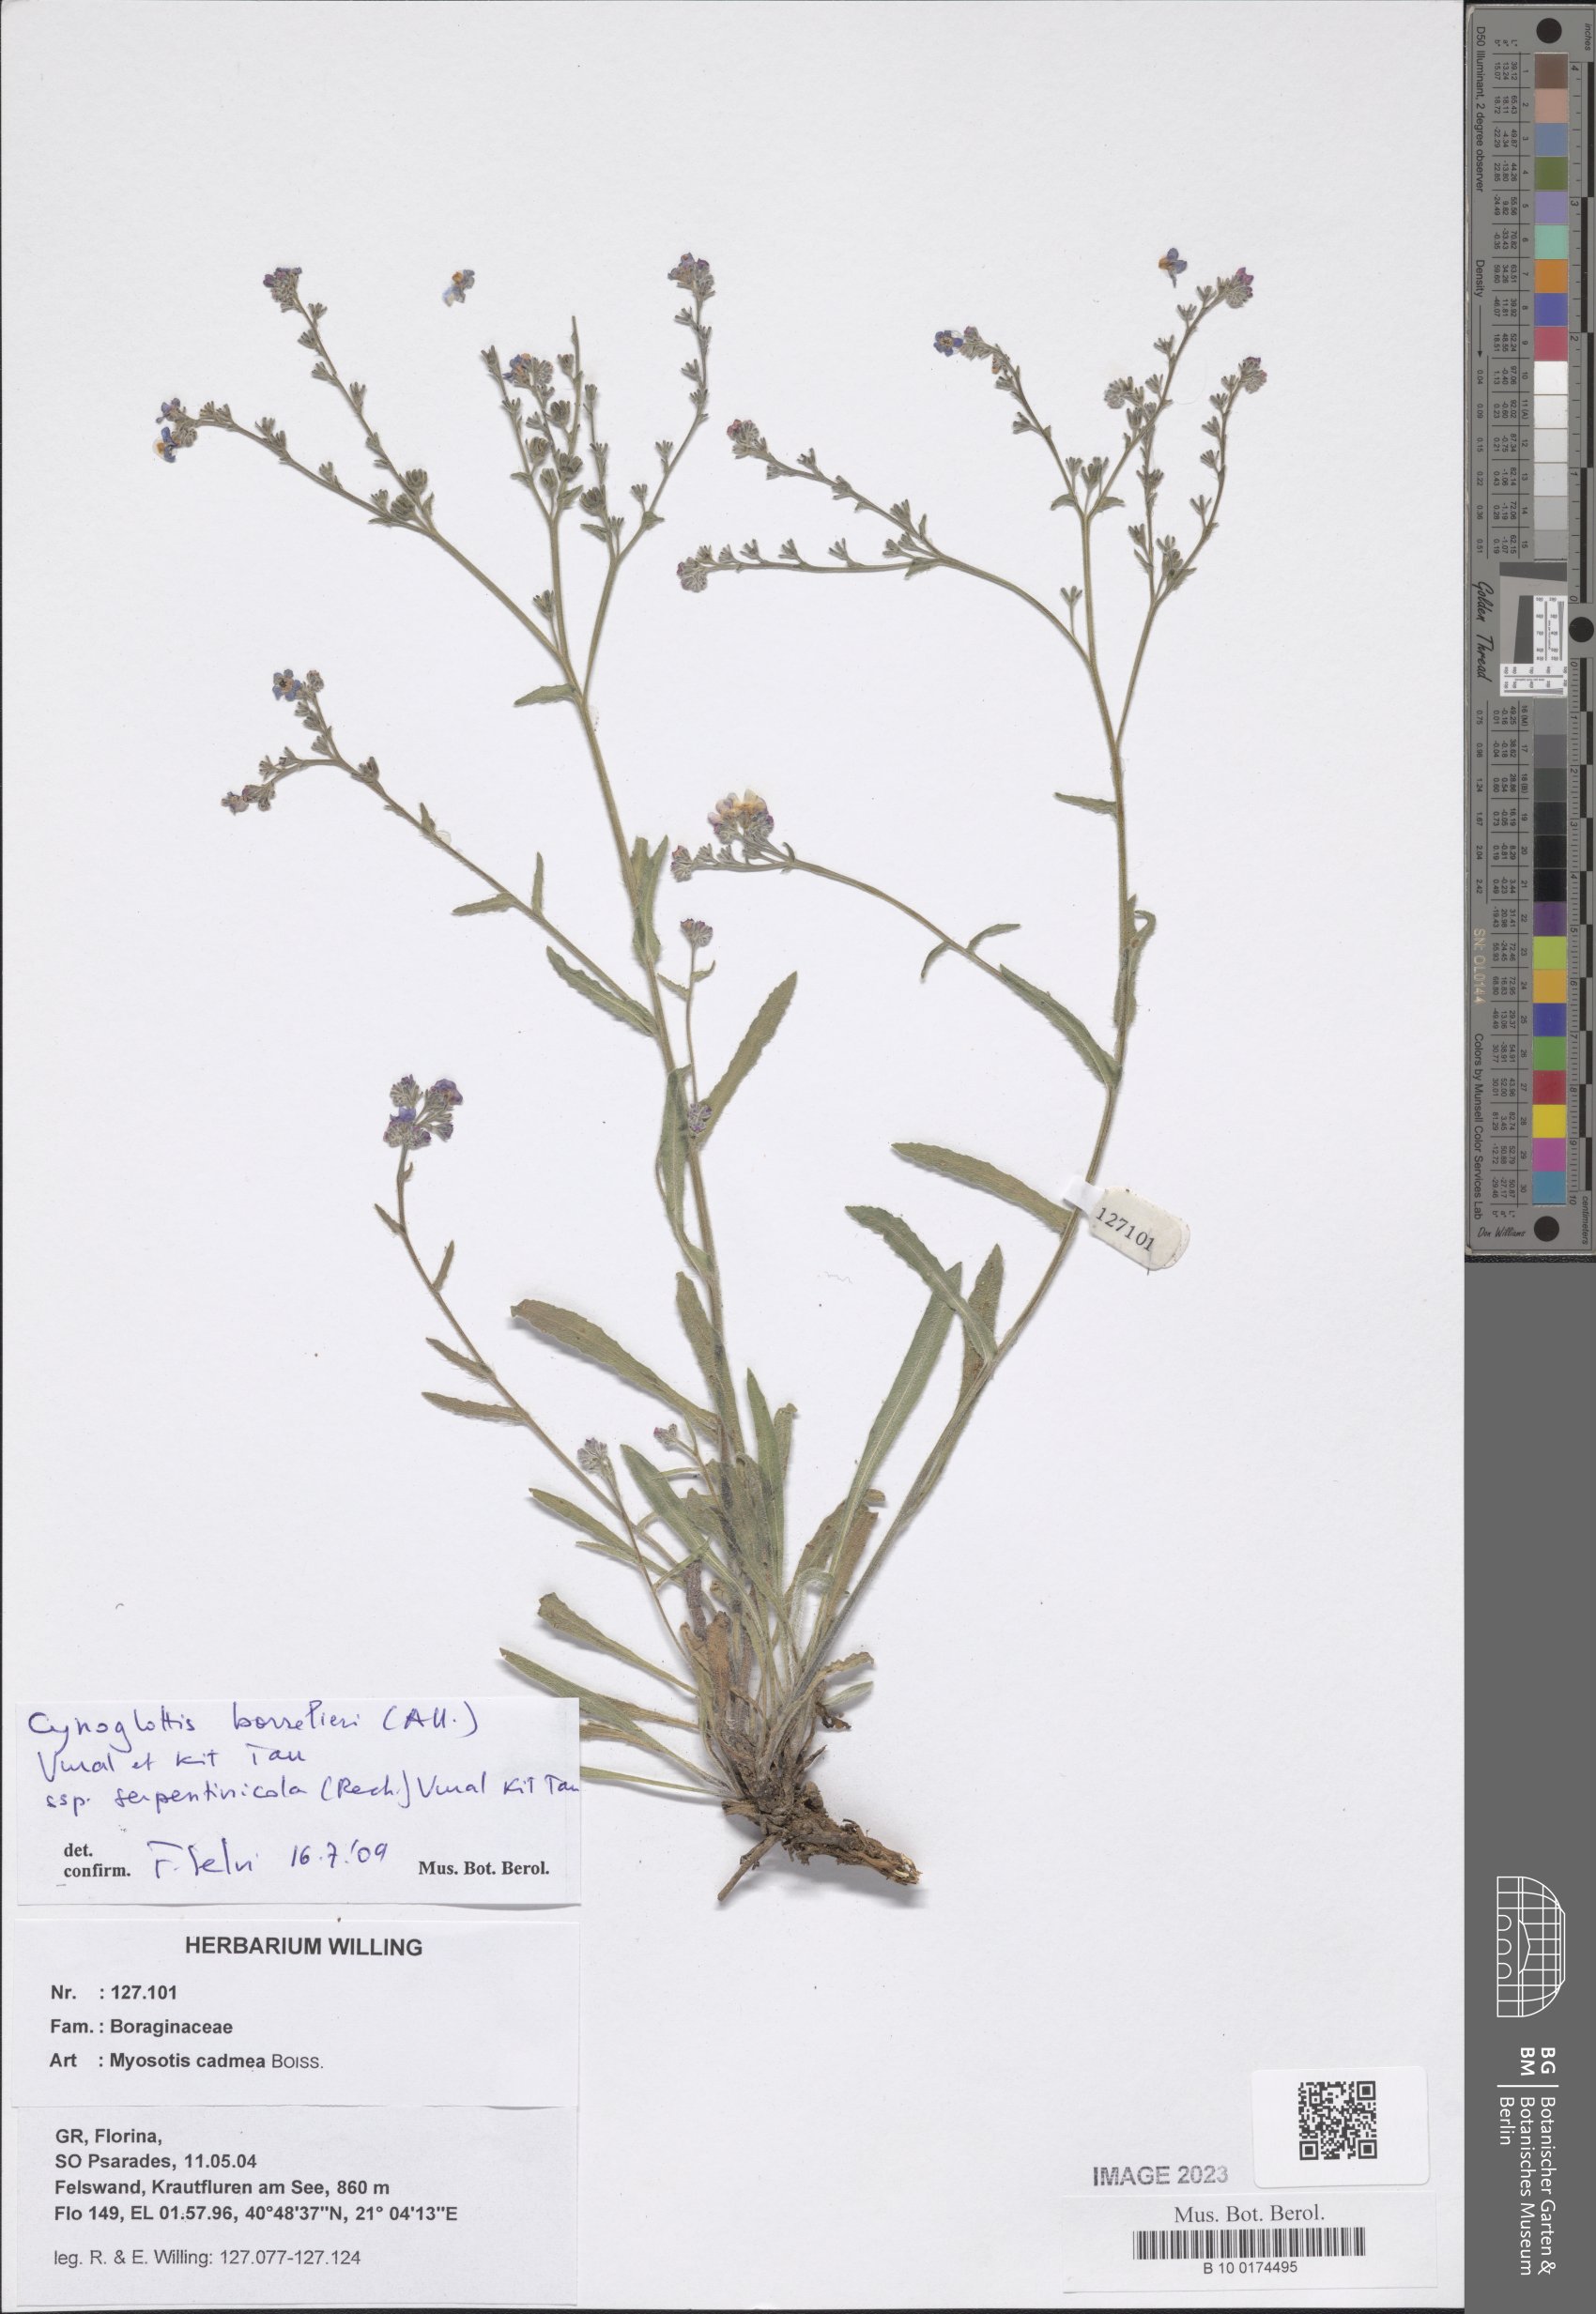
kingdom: Plantae
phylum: Tracheophyta
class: Magnoliopsida
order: Boraginales
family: Boraginaceae
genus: Cynoglottis
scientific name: Cynoglottis barrelieri
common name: False alkanet
